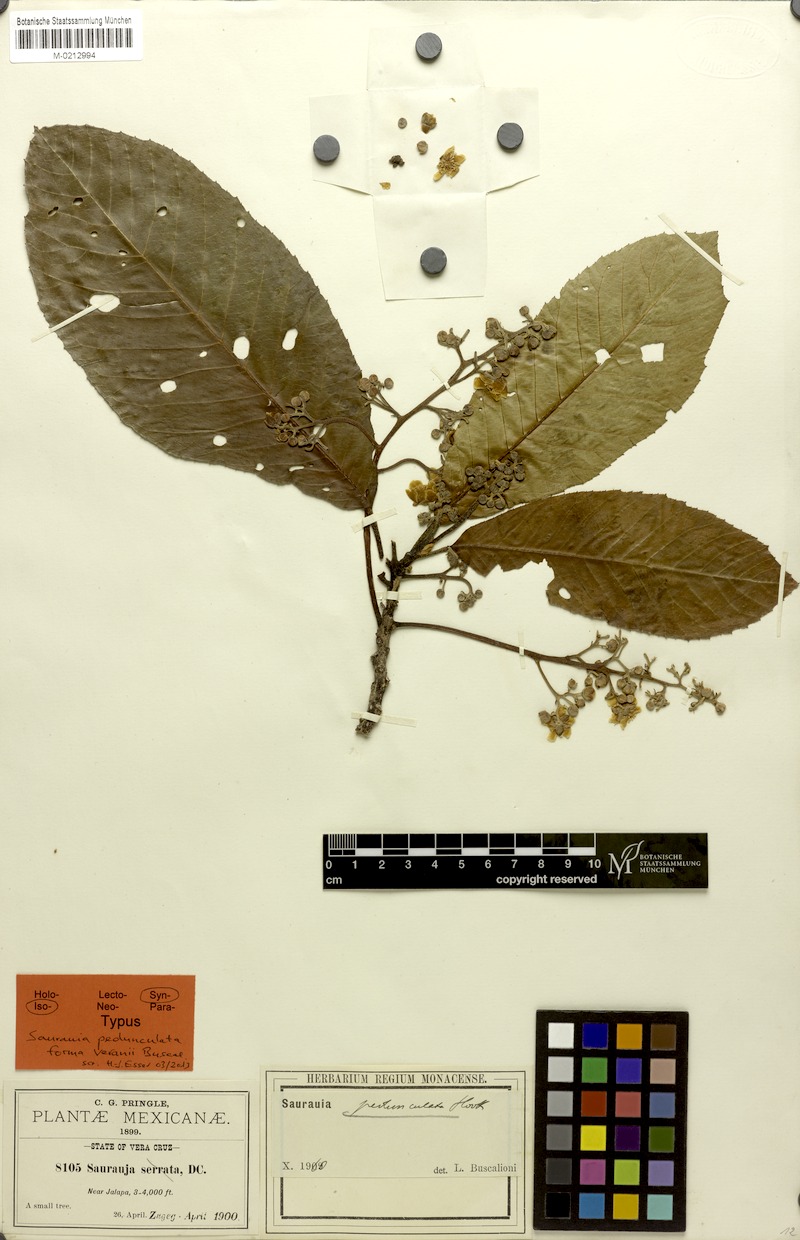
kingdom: Plantae
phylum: Tracheophyta
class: Magnoliopsida
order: Ericales
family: Actinidiaceae
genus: Saurauia
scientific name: Saurauia pedunculata
